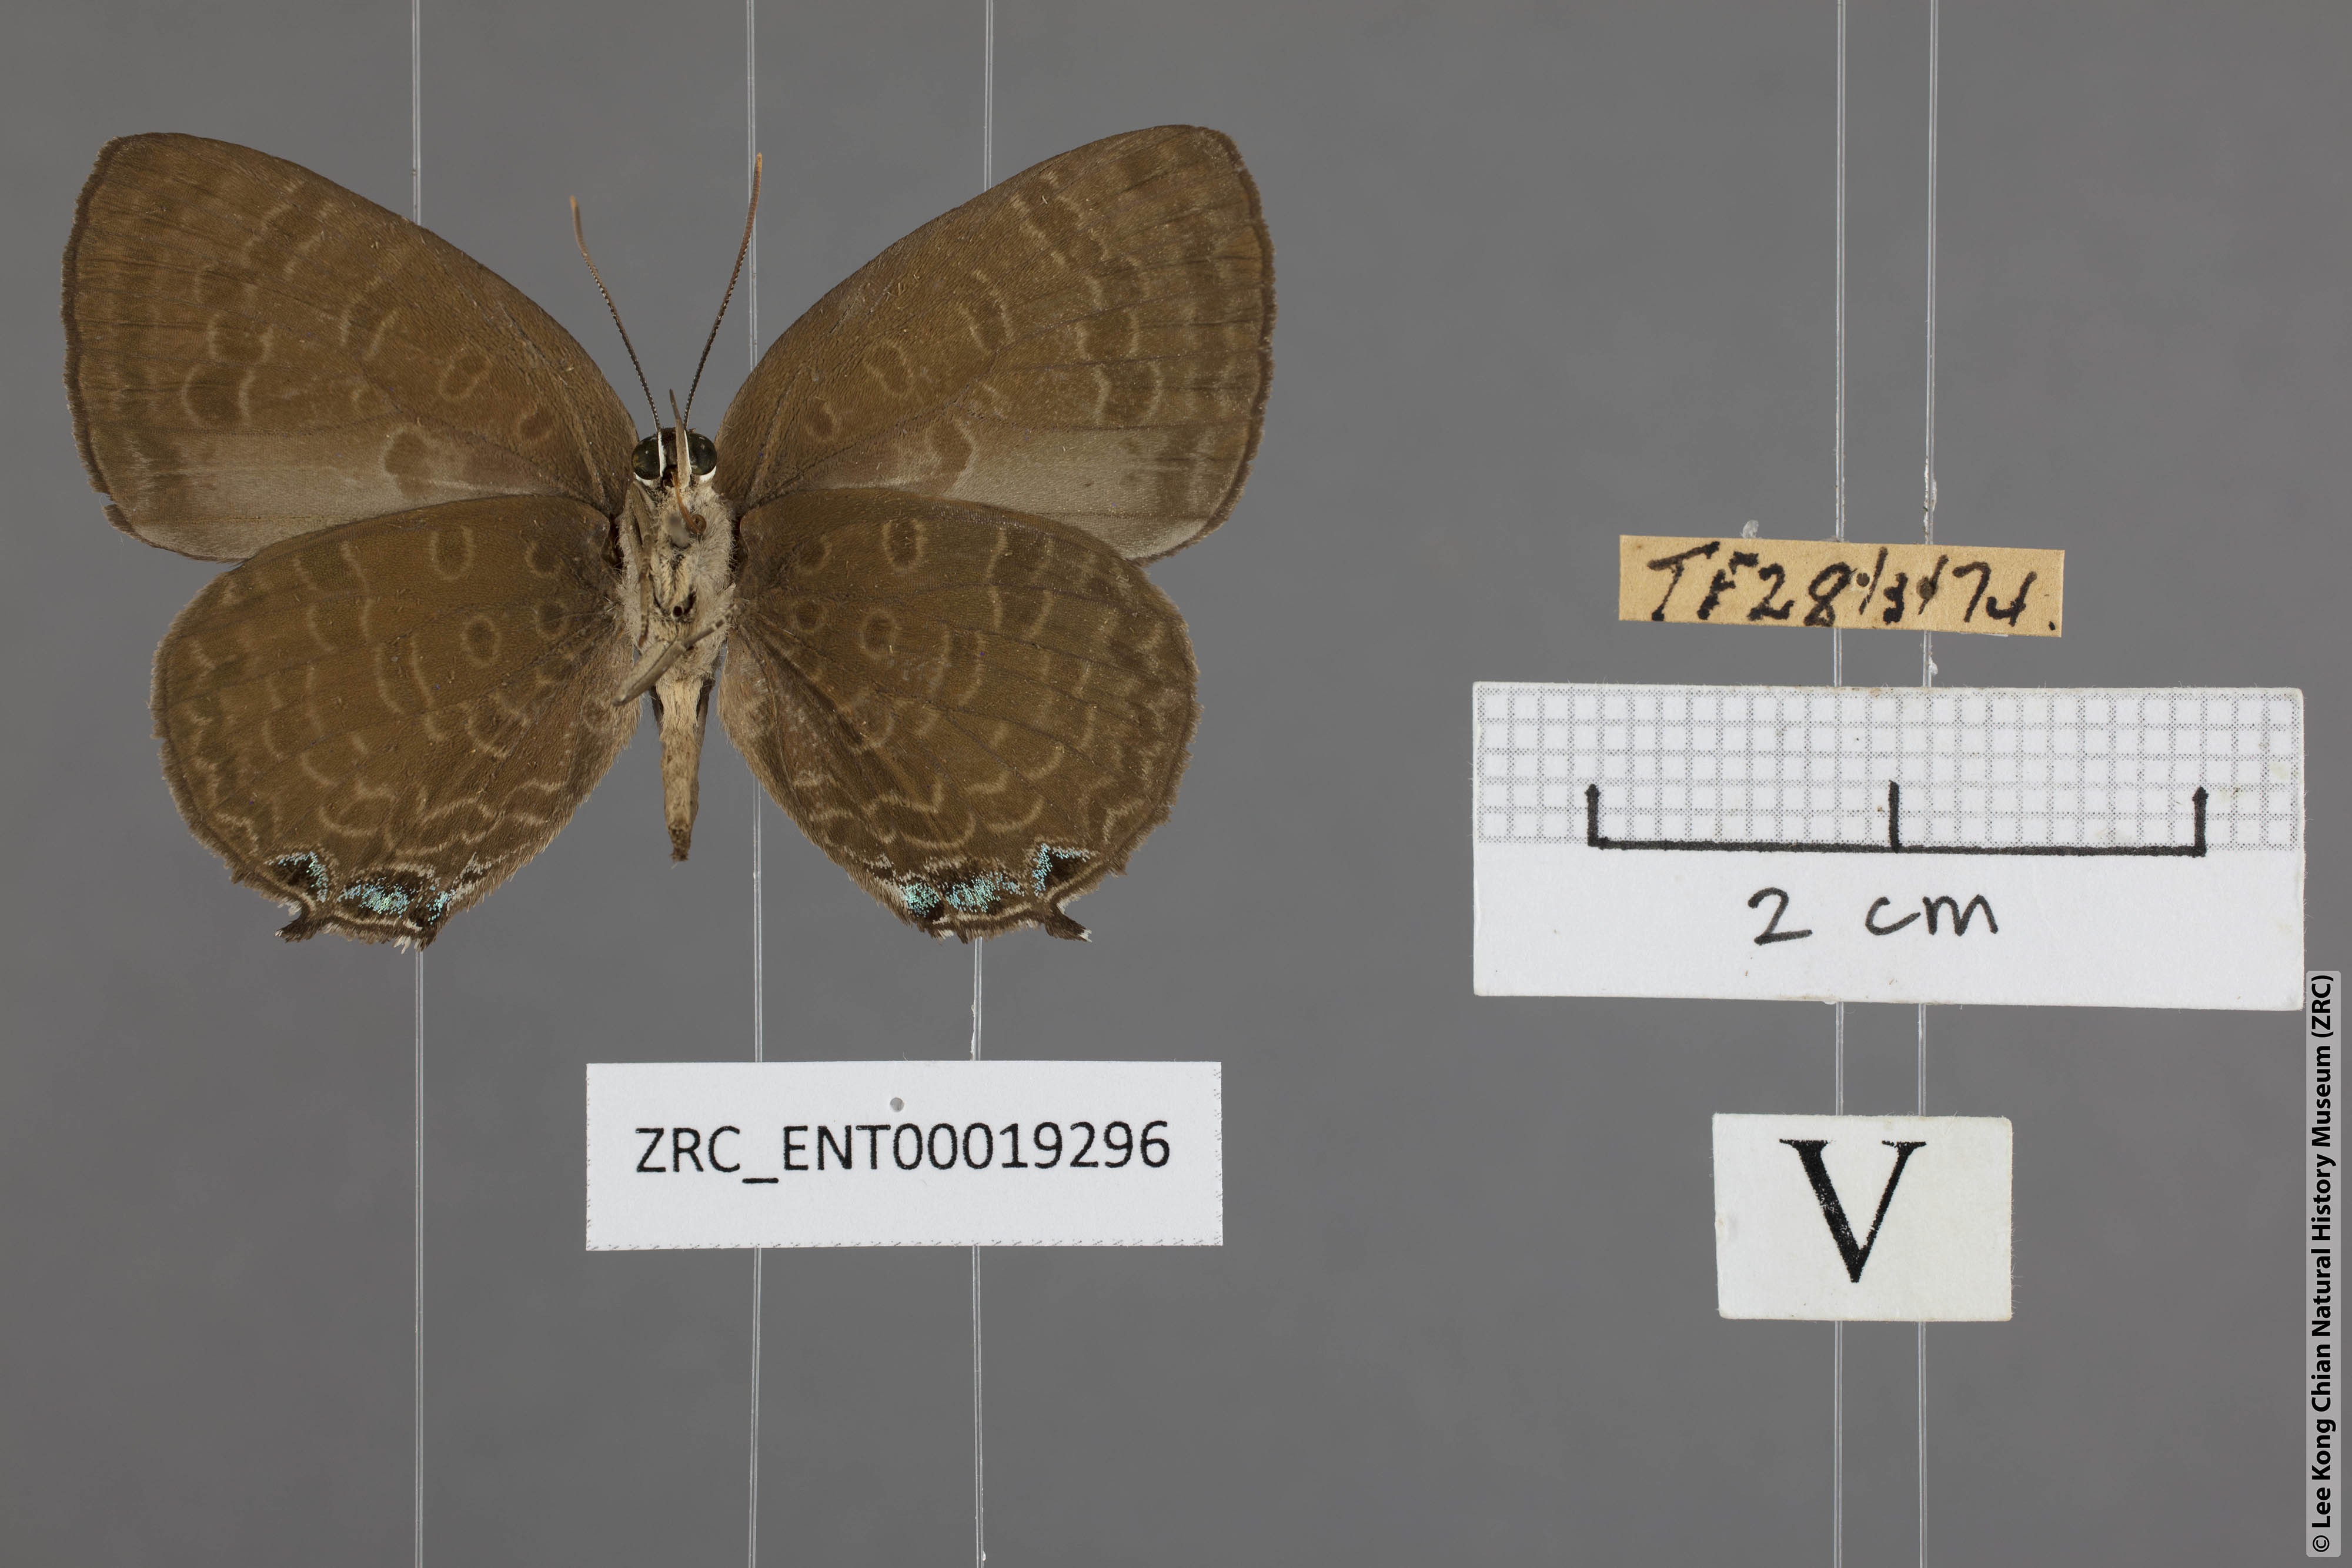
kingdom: Animalia
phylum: Arthropoda
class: Insecta
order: Lepidoptera
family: Lycaenidae
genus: Arhopala
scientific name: Arhopala aurea
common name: Long-celled oakblue
